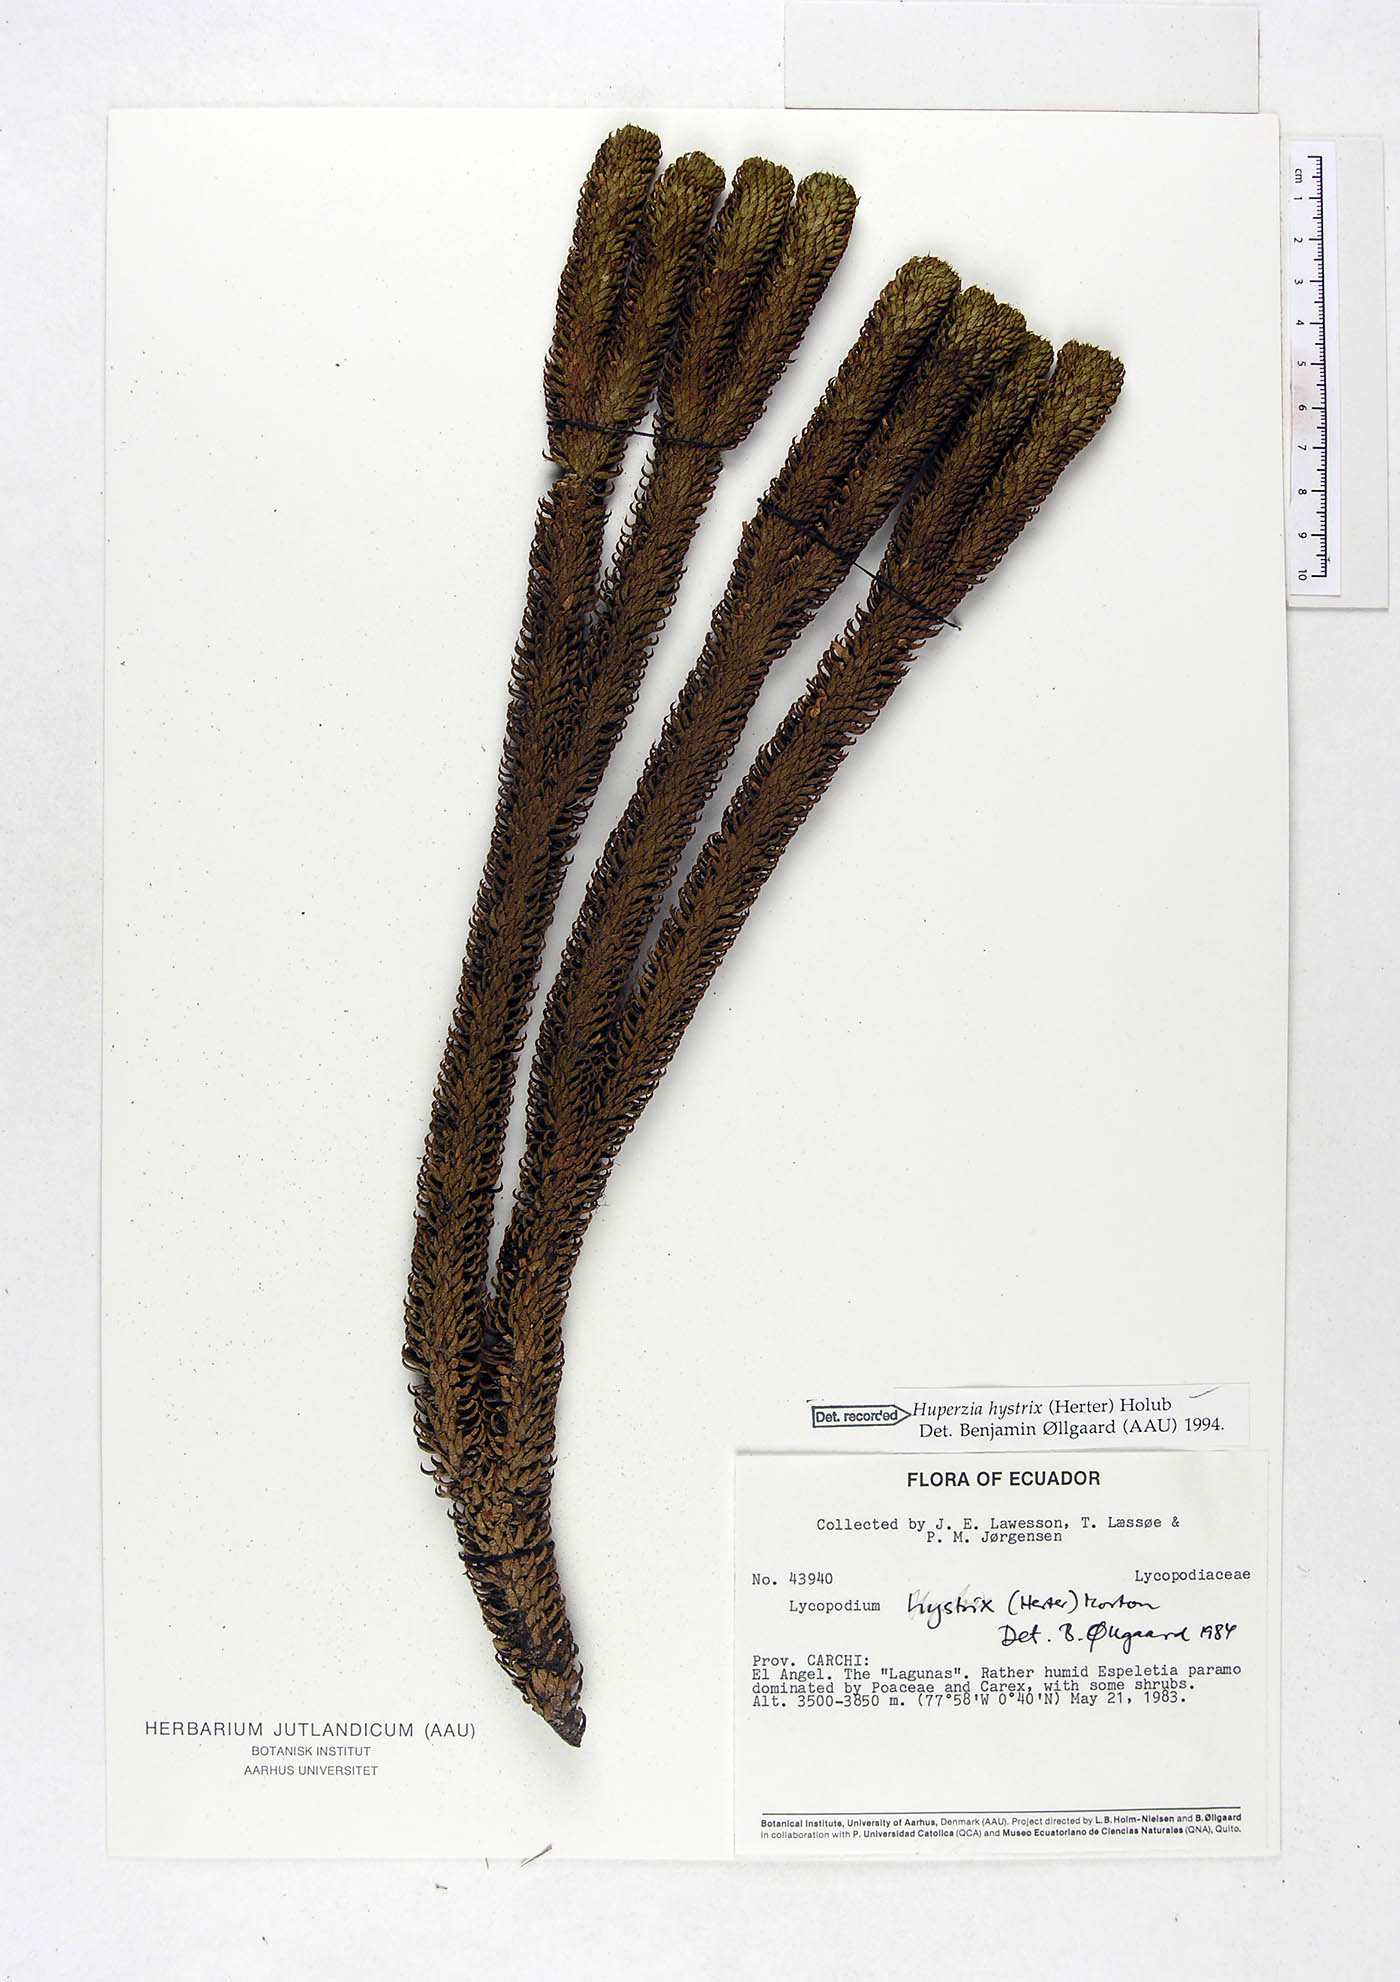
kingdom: Plantae
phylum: Tracheophyta
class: Lycopodiopsida
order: Lycopodiales
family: Lycopodiaceae
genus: Phlegmariurus
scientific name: Phlegmariurus hystrix
